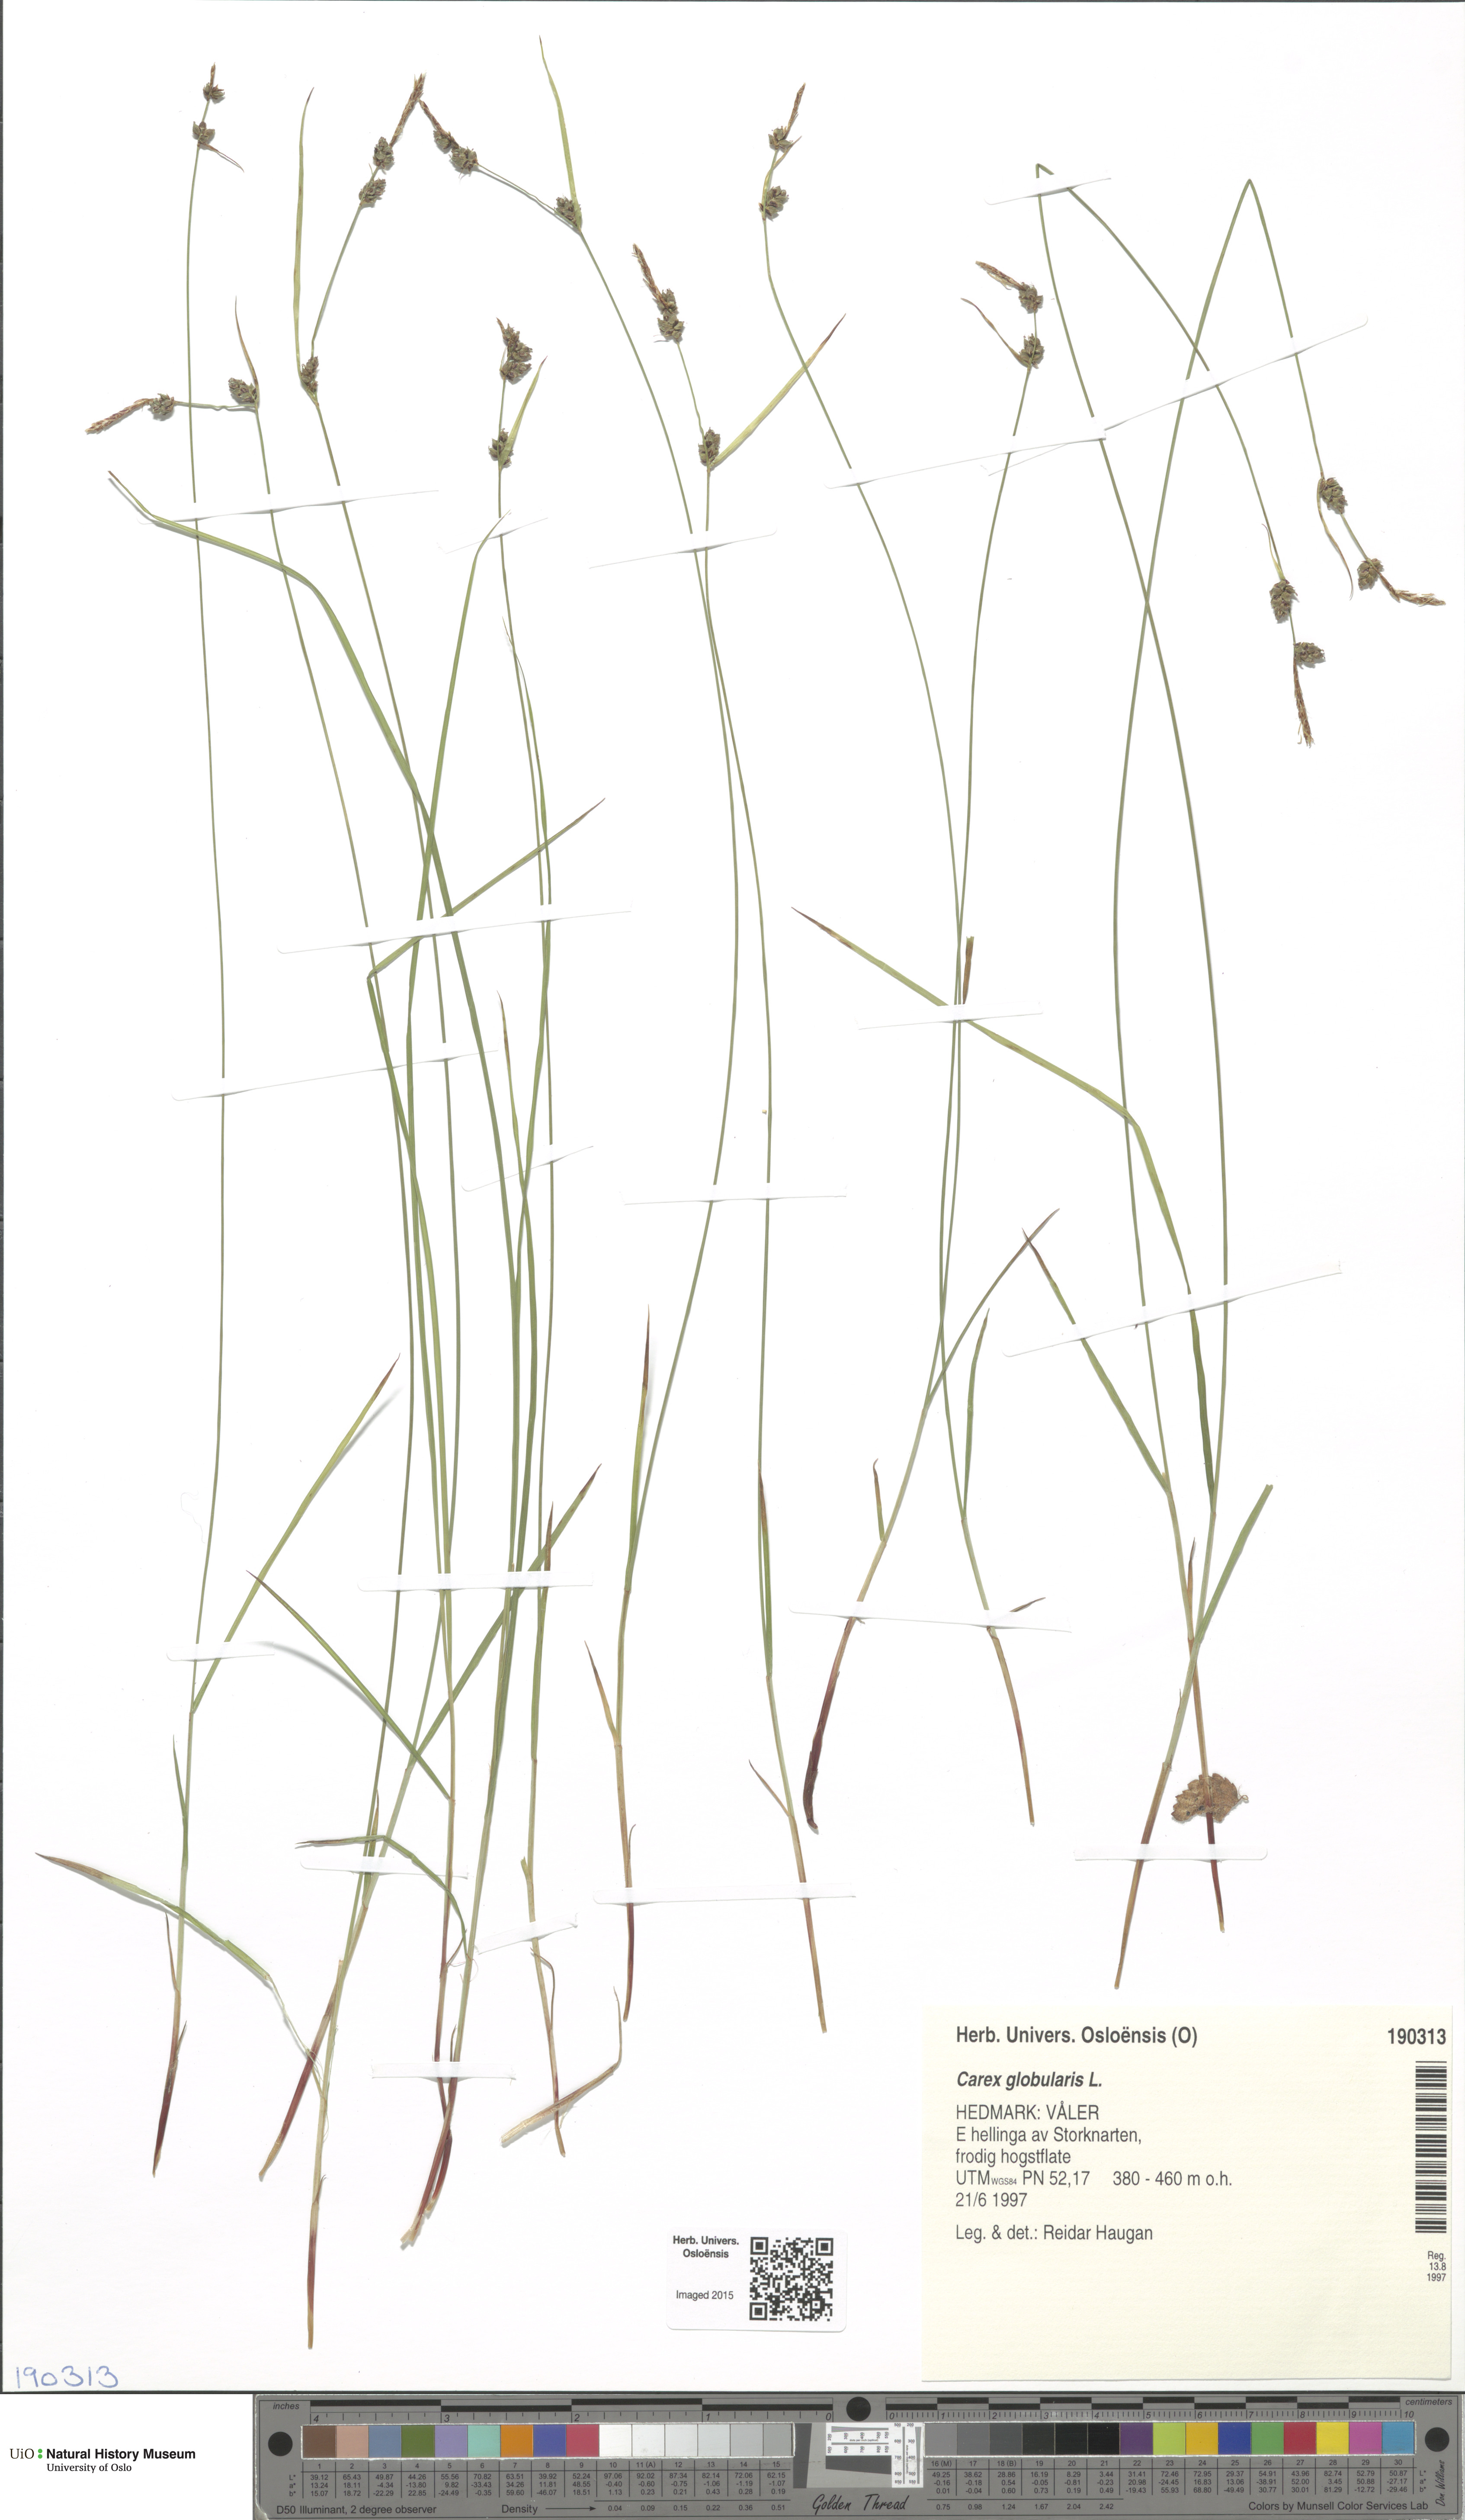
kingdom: Plantae
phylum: Tracheophyta
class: Liliopsida
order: Poales
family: Cyperaceae
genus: Carex
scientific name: Carex globularis
